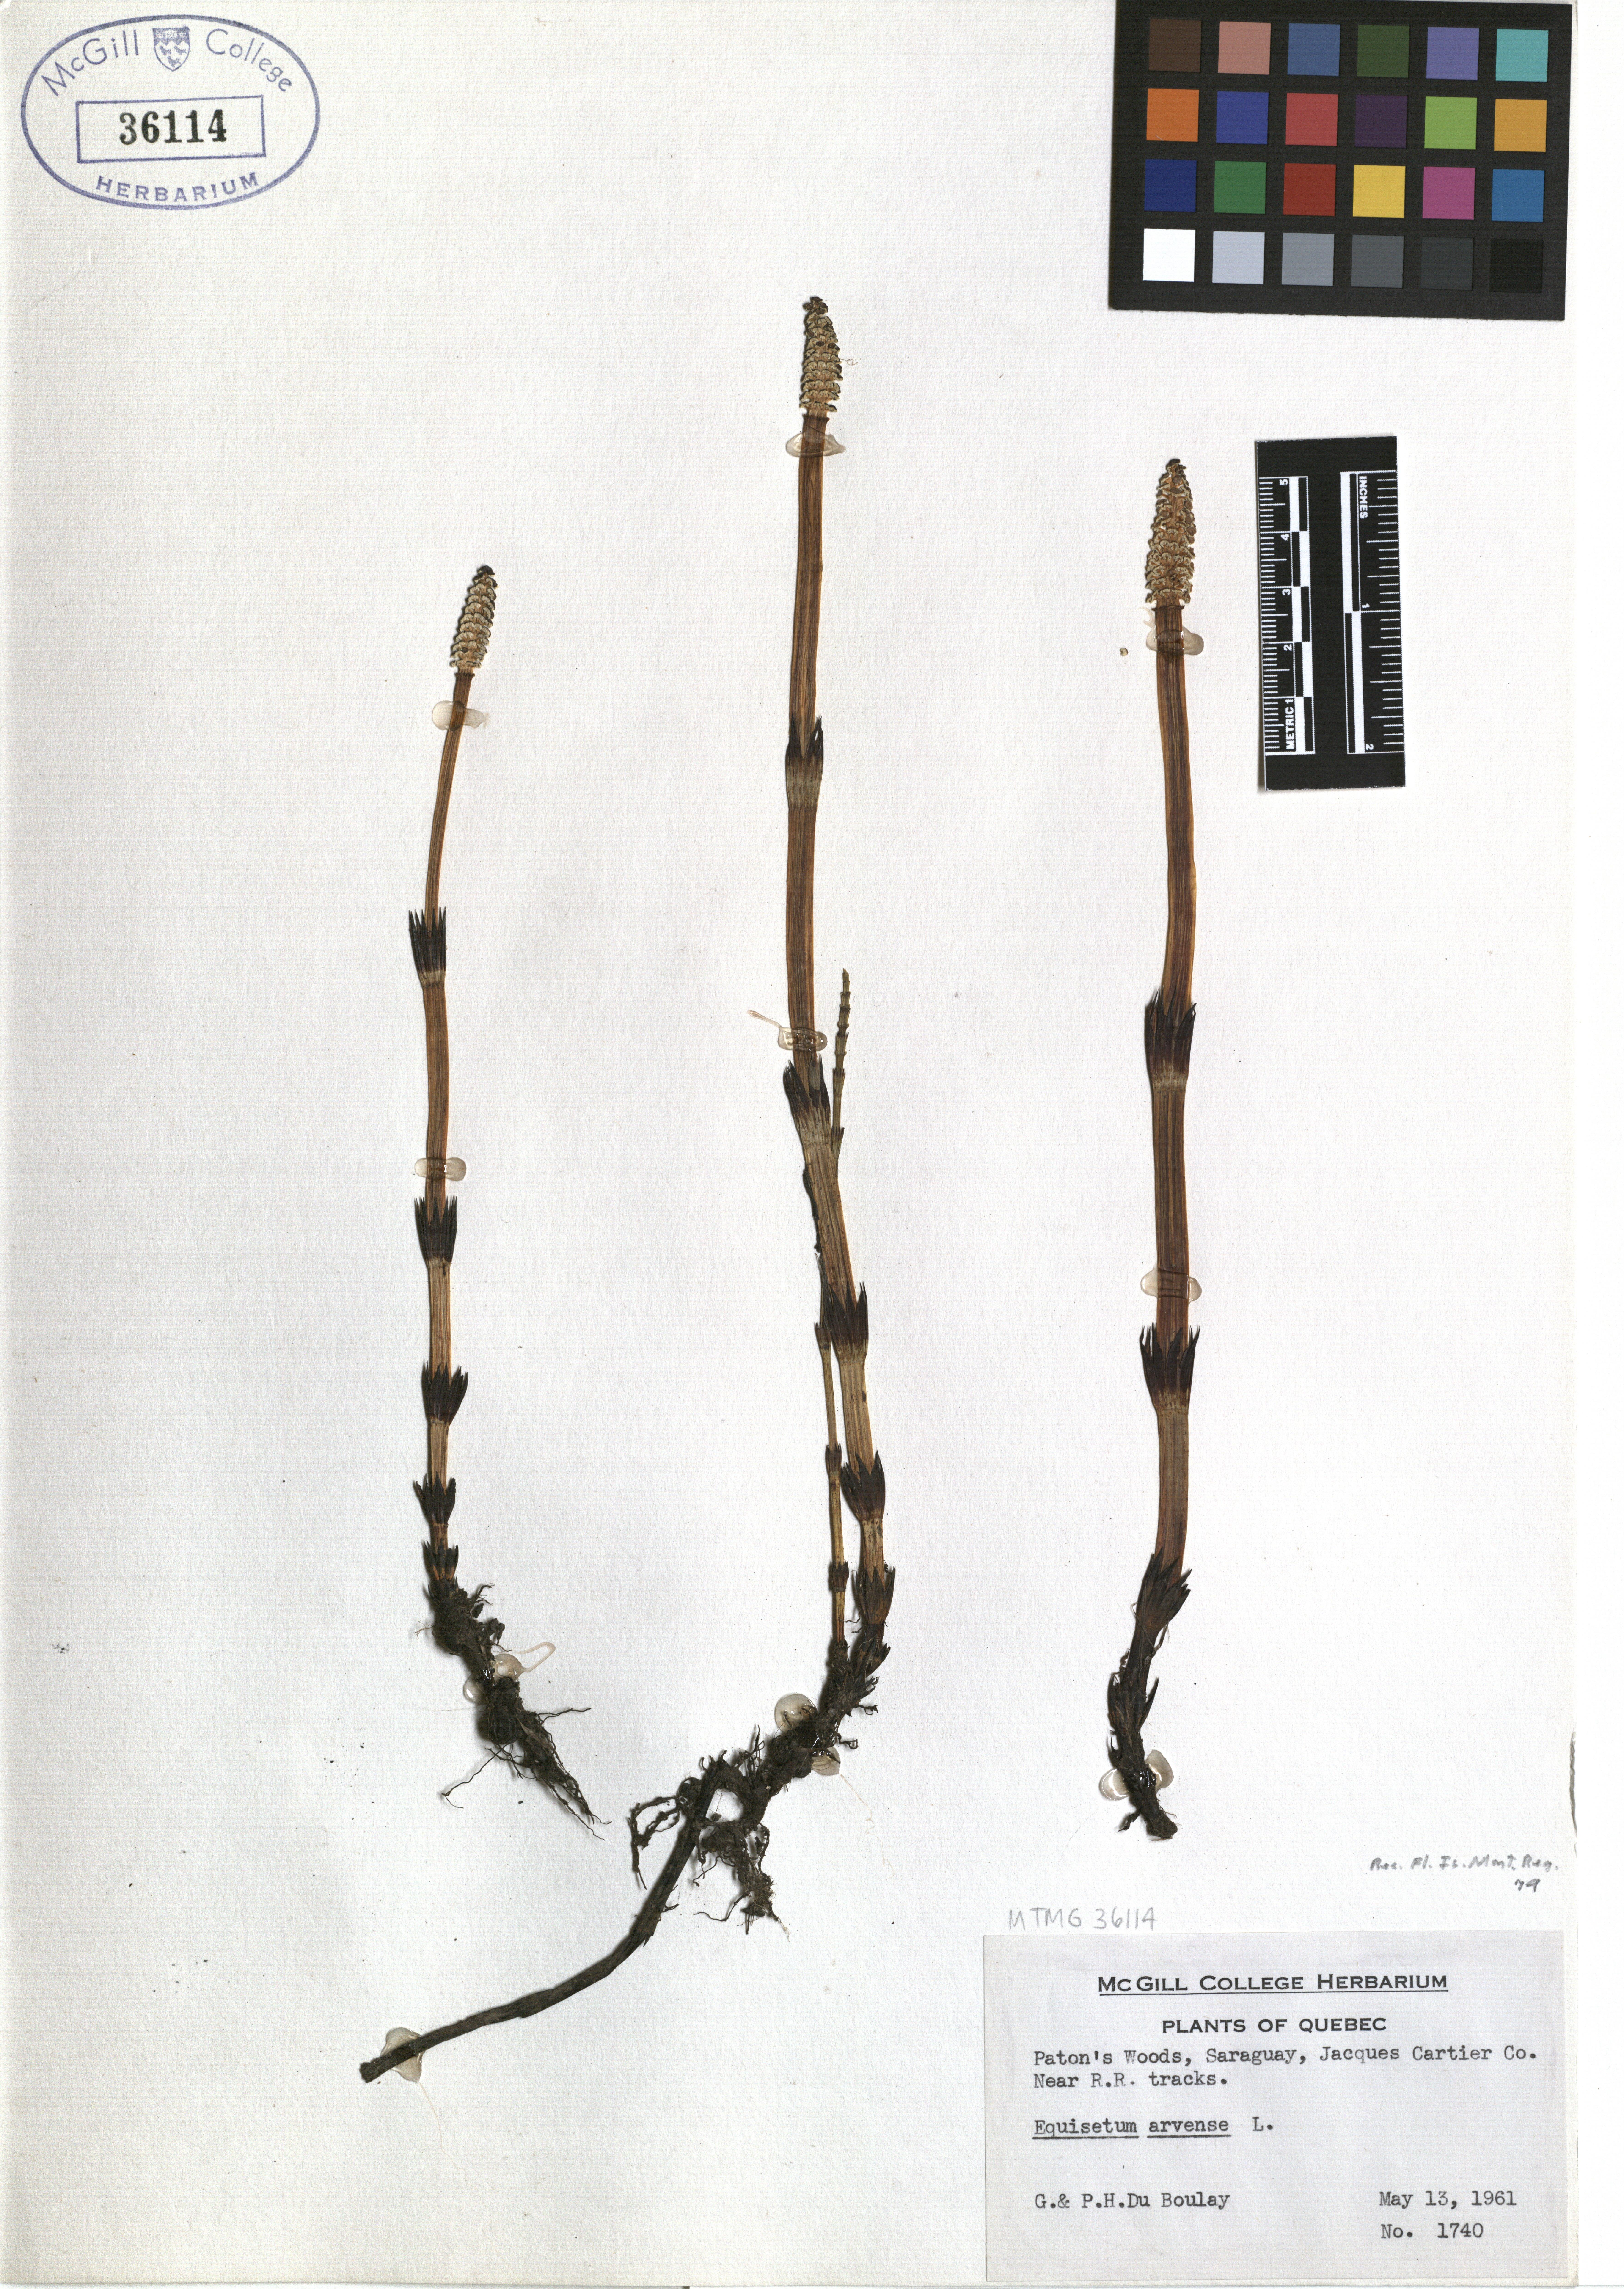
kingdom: Plantae
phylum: Tracheophyta
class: Polypodiopsida
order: Equisetales
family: Equisetaceae
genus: Equisetum
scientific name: Equisetum arvense
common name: Field horsetail
